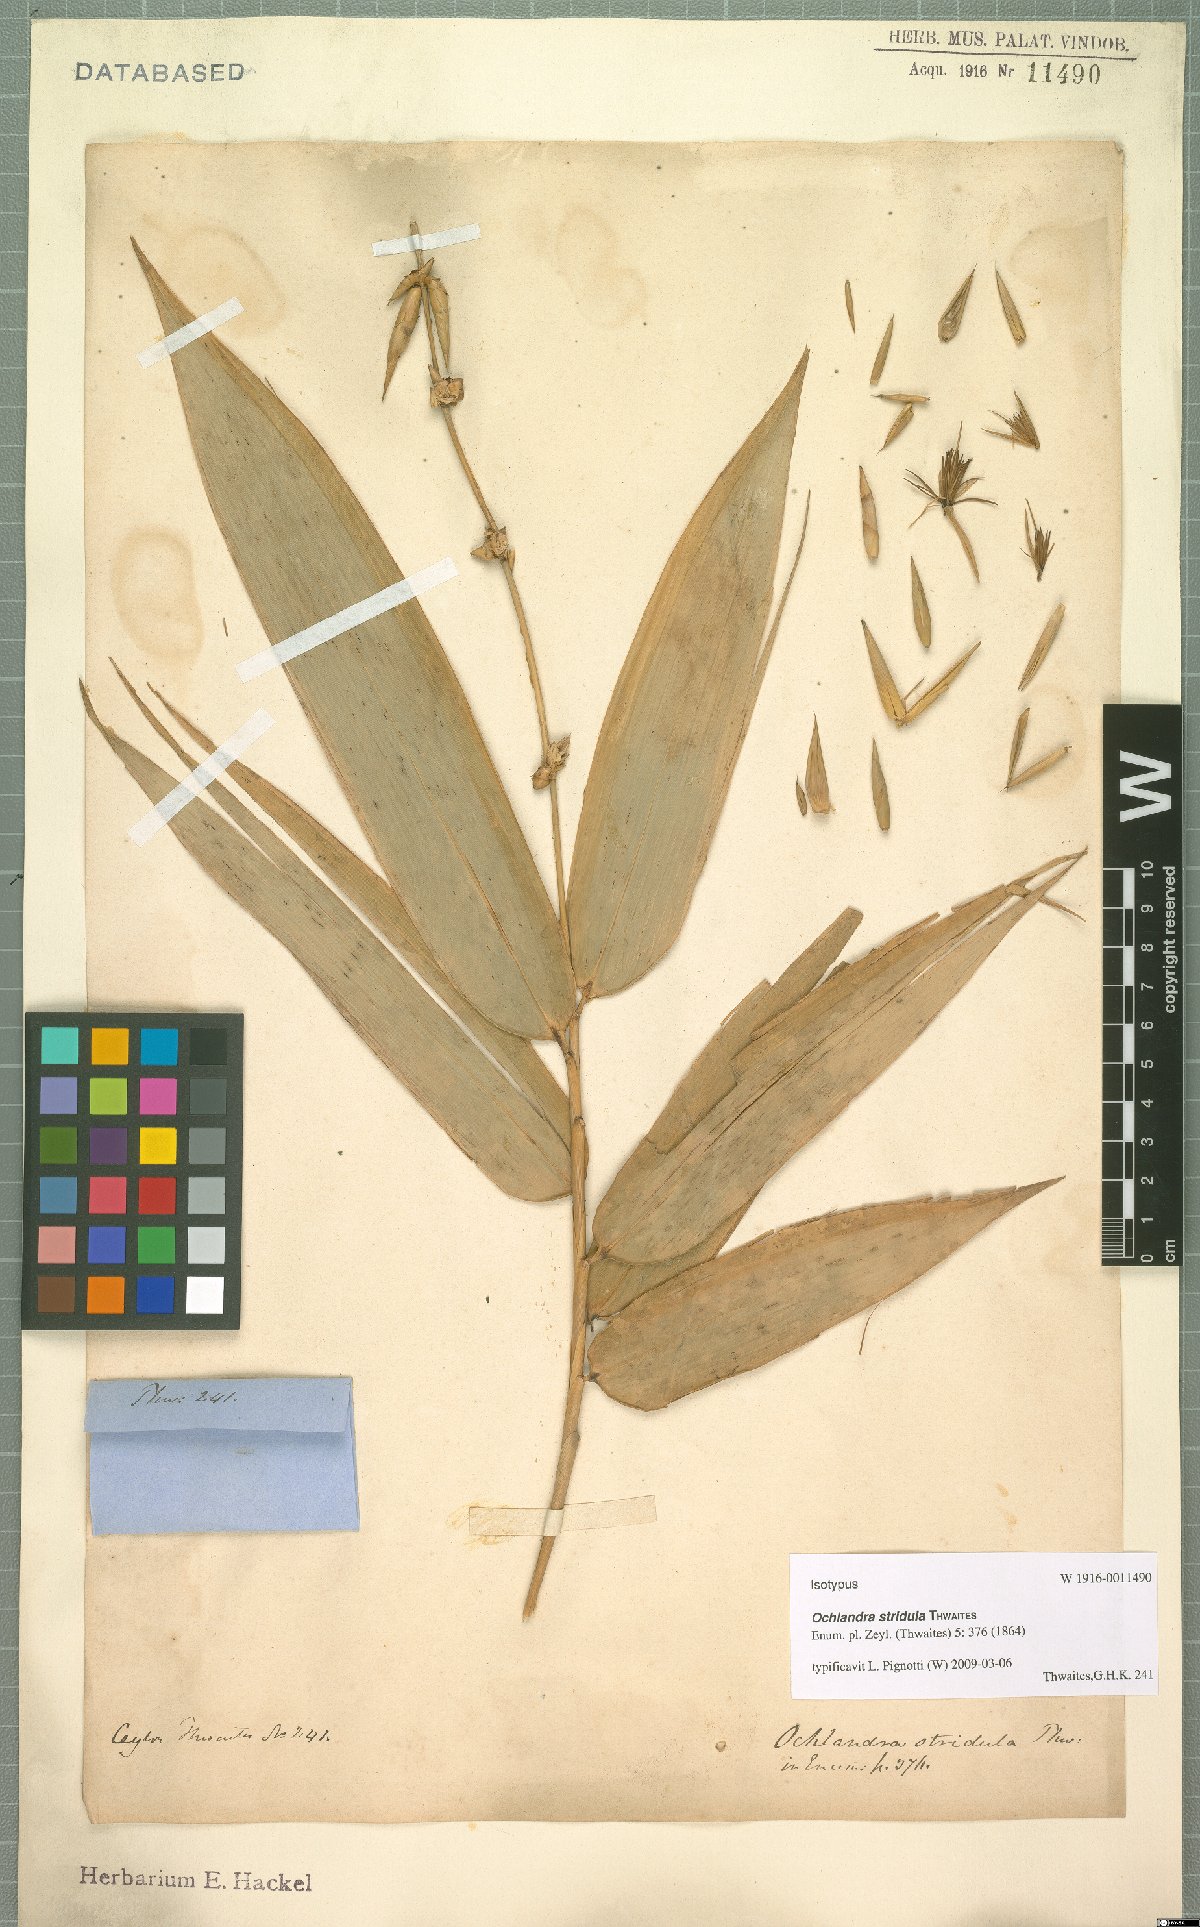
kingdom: Plantae
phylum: Tracheophyta
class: Liliopsida
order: Poales
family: Poaceae
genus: Ochlandra
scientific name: Ochlandra stridula
